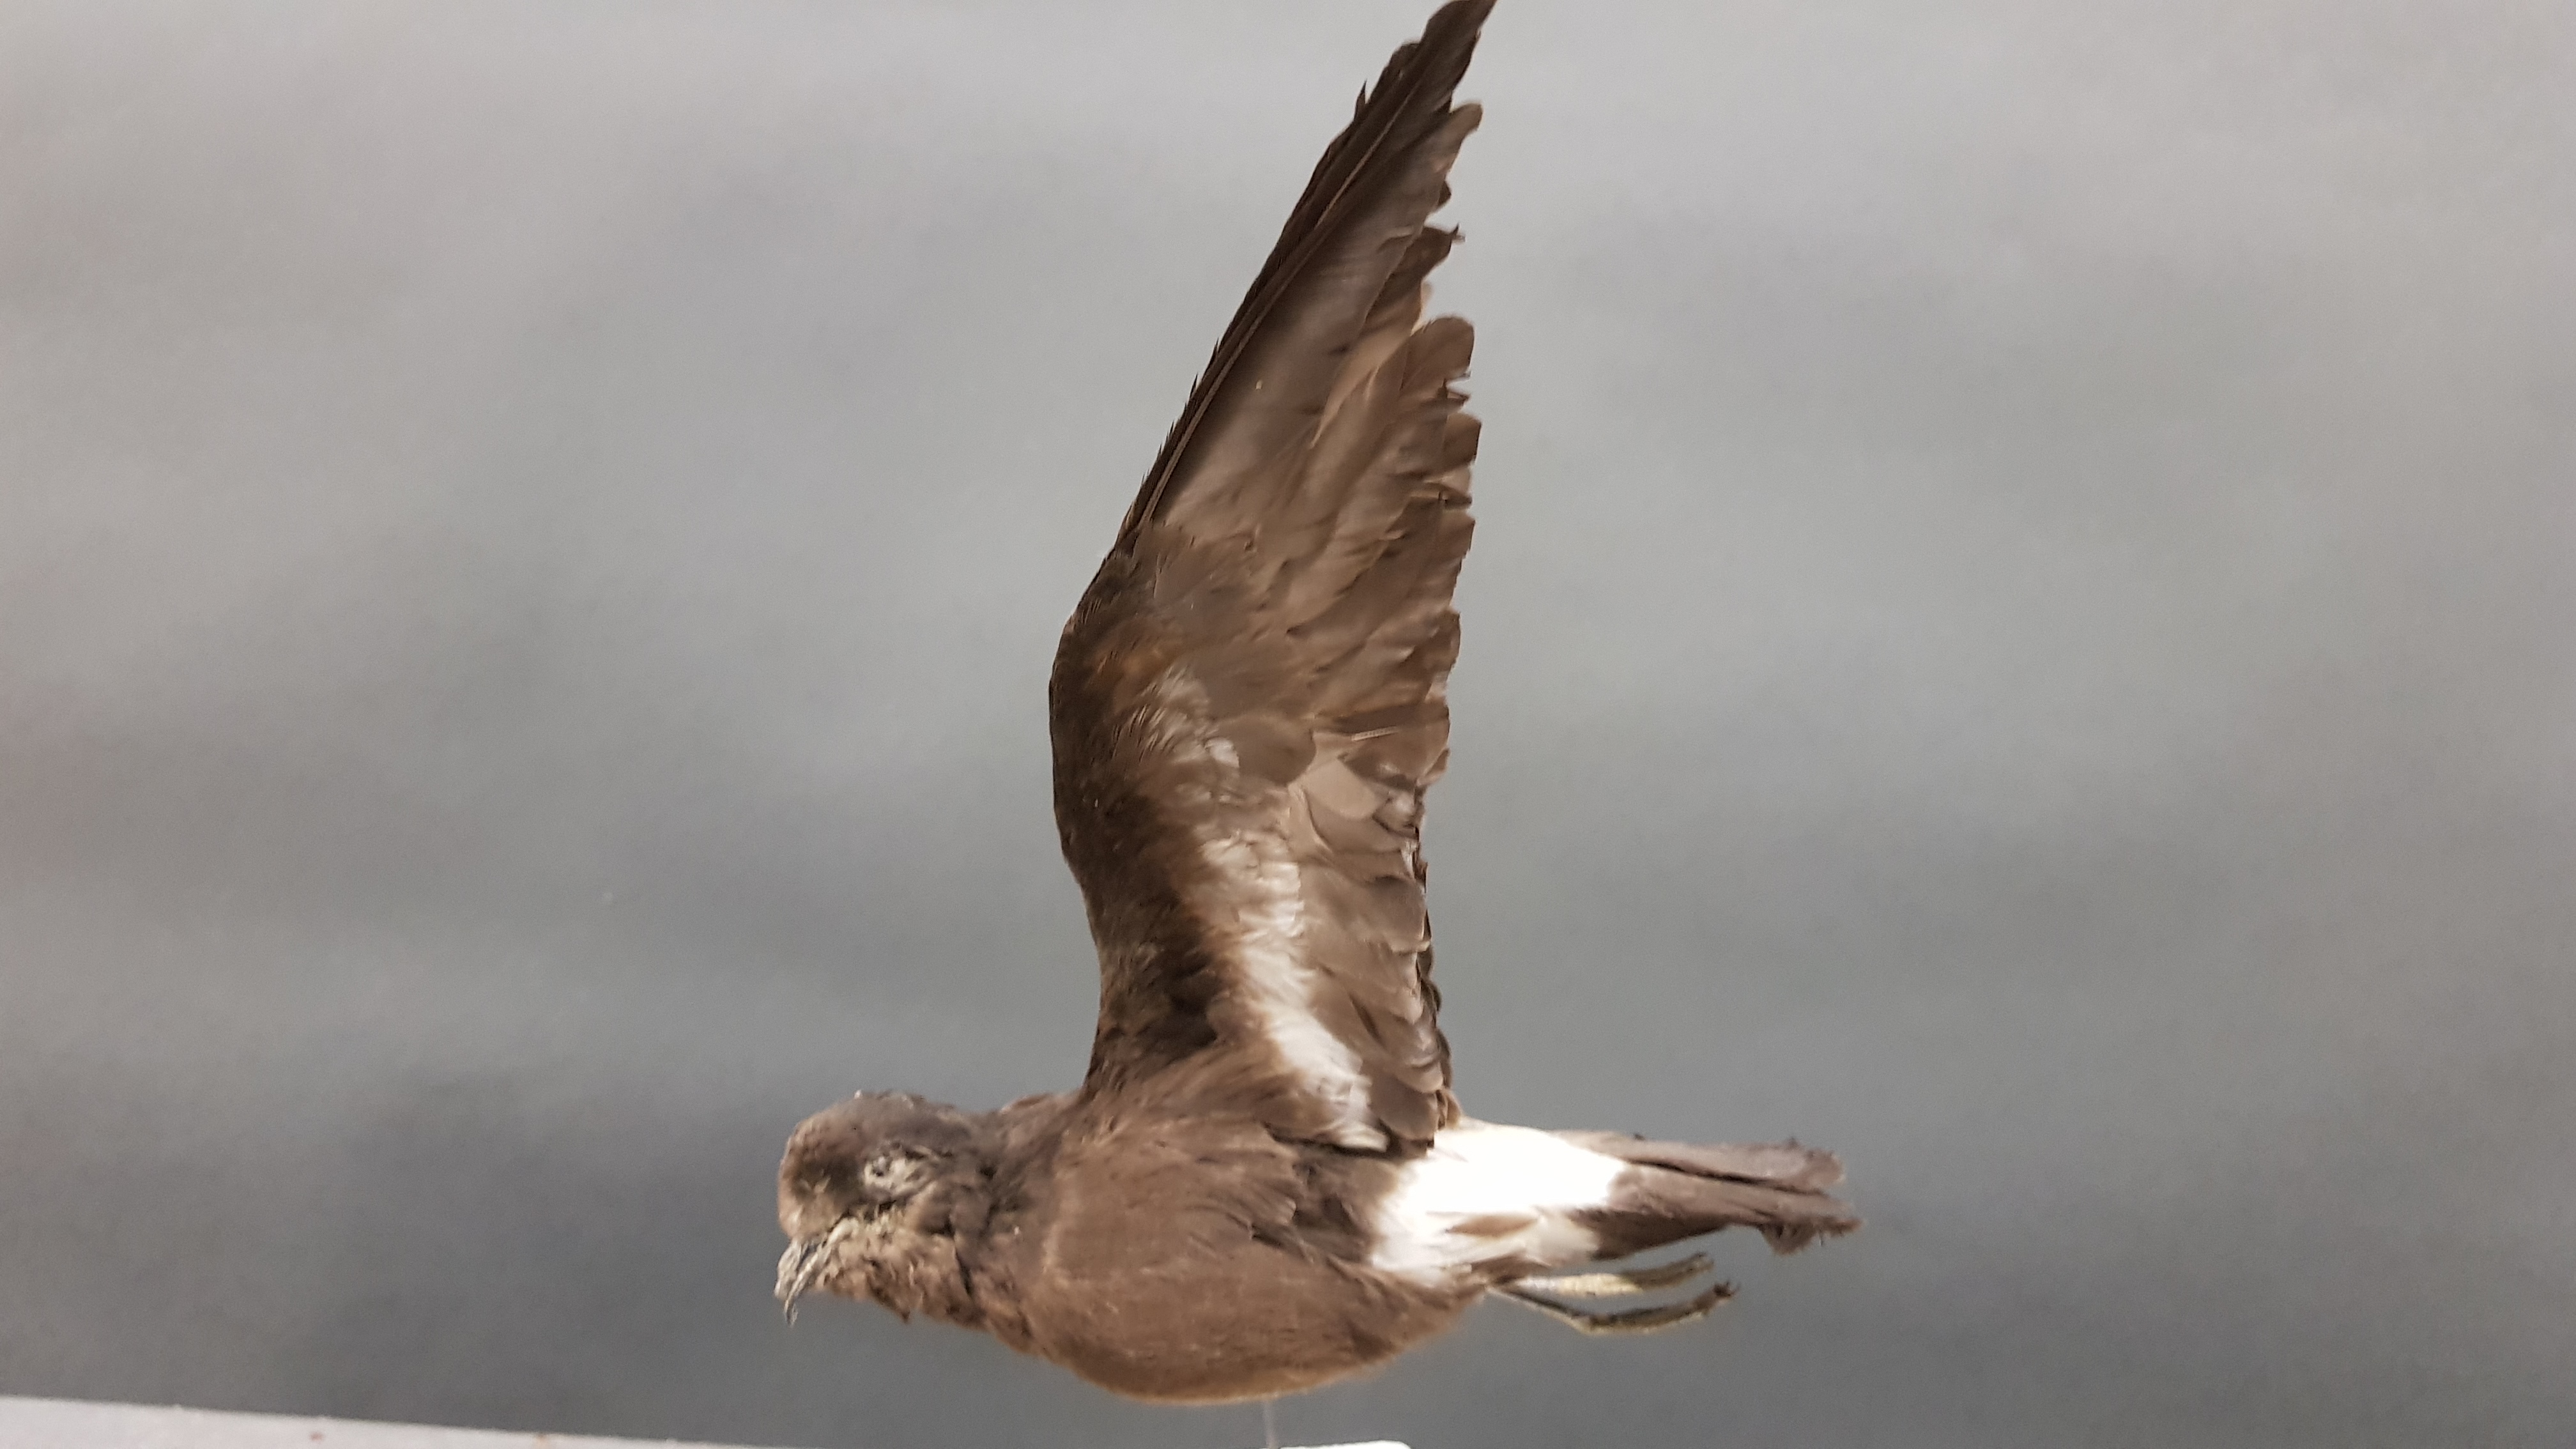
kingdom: Animalia
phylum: Chordata
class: Aves
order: Procellariiformes
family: Hydrobatidae
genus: Hydrobates
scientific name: Hydrobates pelagicus
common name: European storm-petrel
